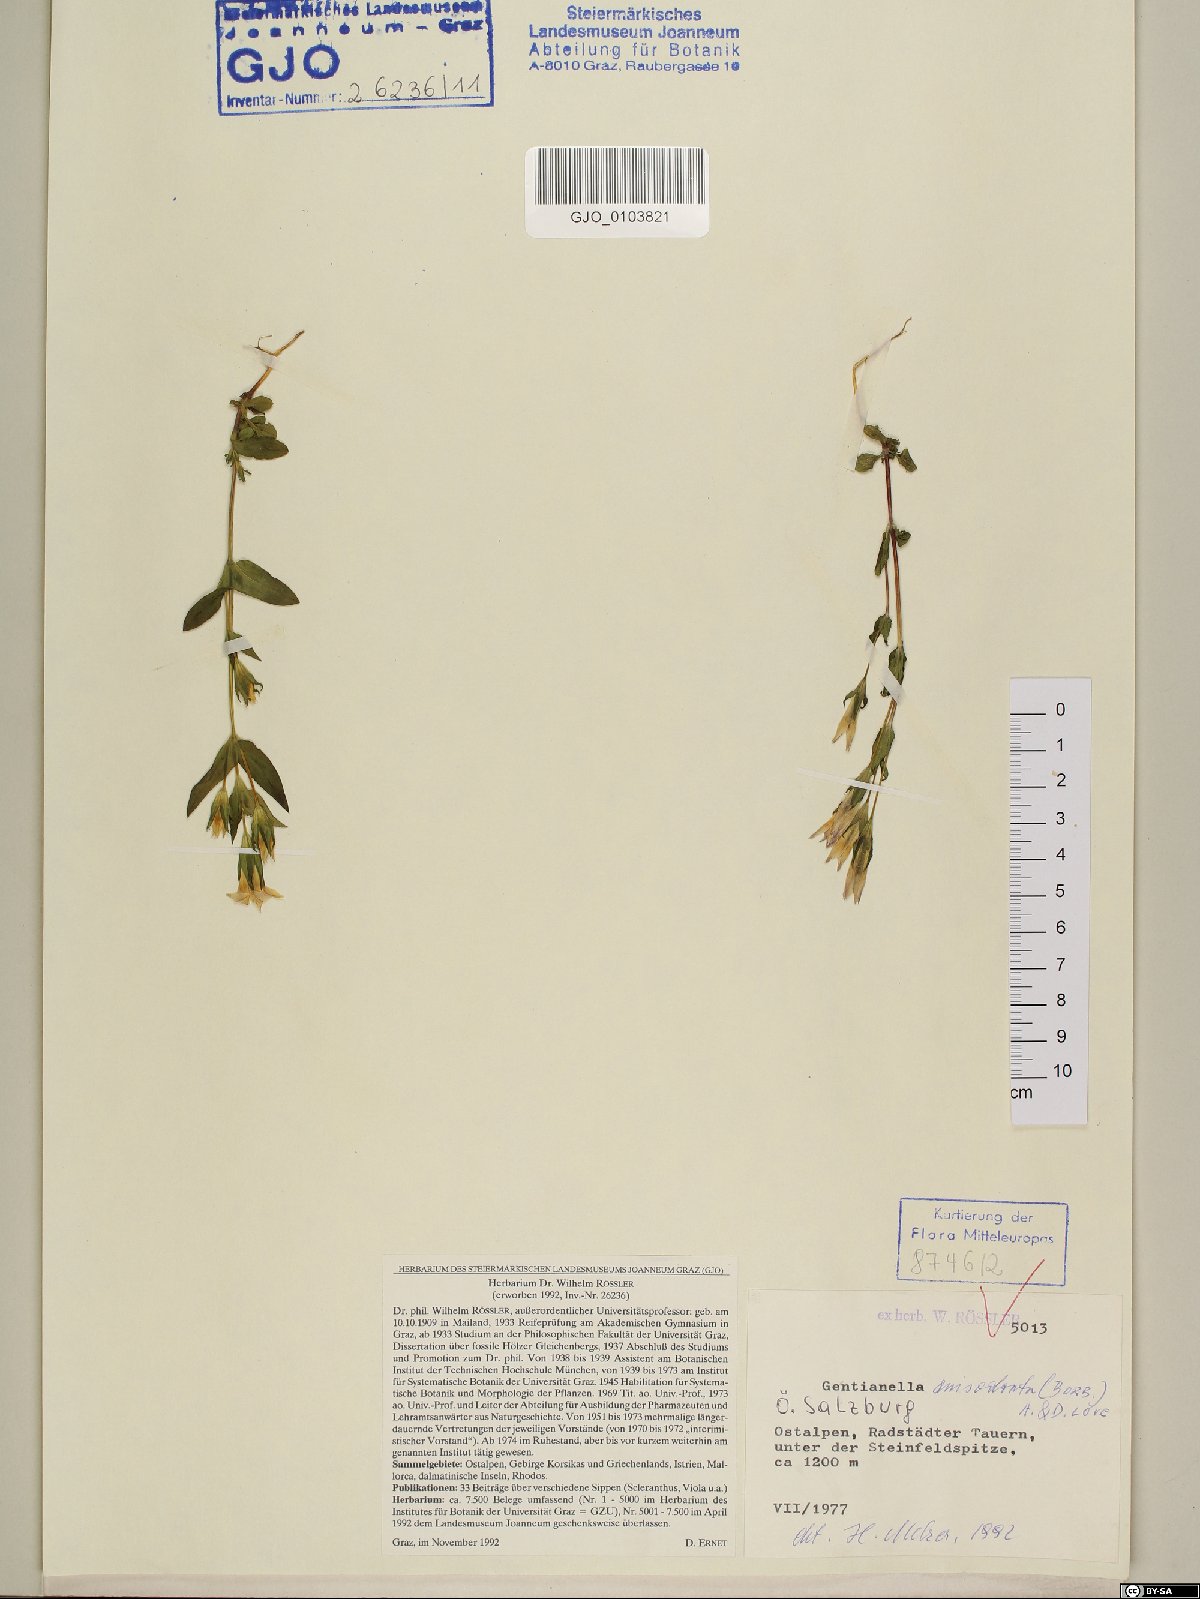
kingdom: Plantae
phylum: Tracheophyta
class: Magnoliopsida
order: Gentianales
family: Gentianaceae
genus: Gentianella
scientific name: Gentianella anisodonta
